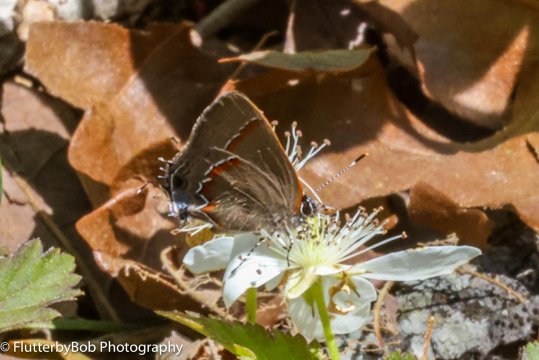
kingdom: Animalia
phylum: Arthropoda
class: Insecta
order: Lepidoptera
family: Lycaenidae
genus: Calycopis
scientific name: Calycopis cecrops
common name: Red-banded Hairstreak
